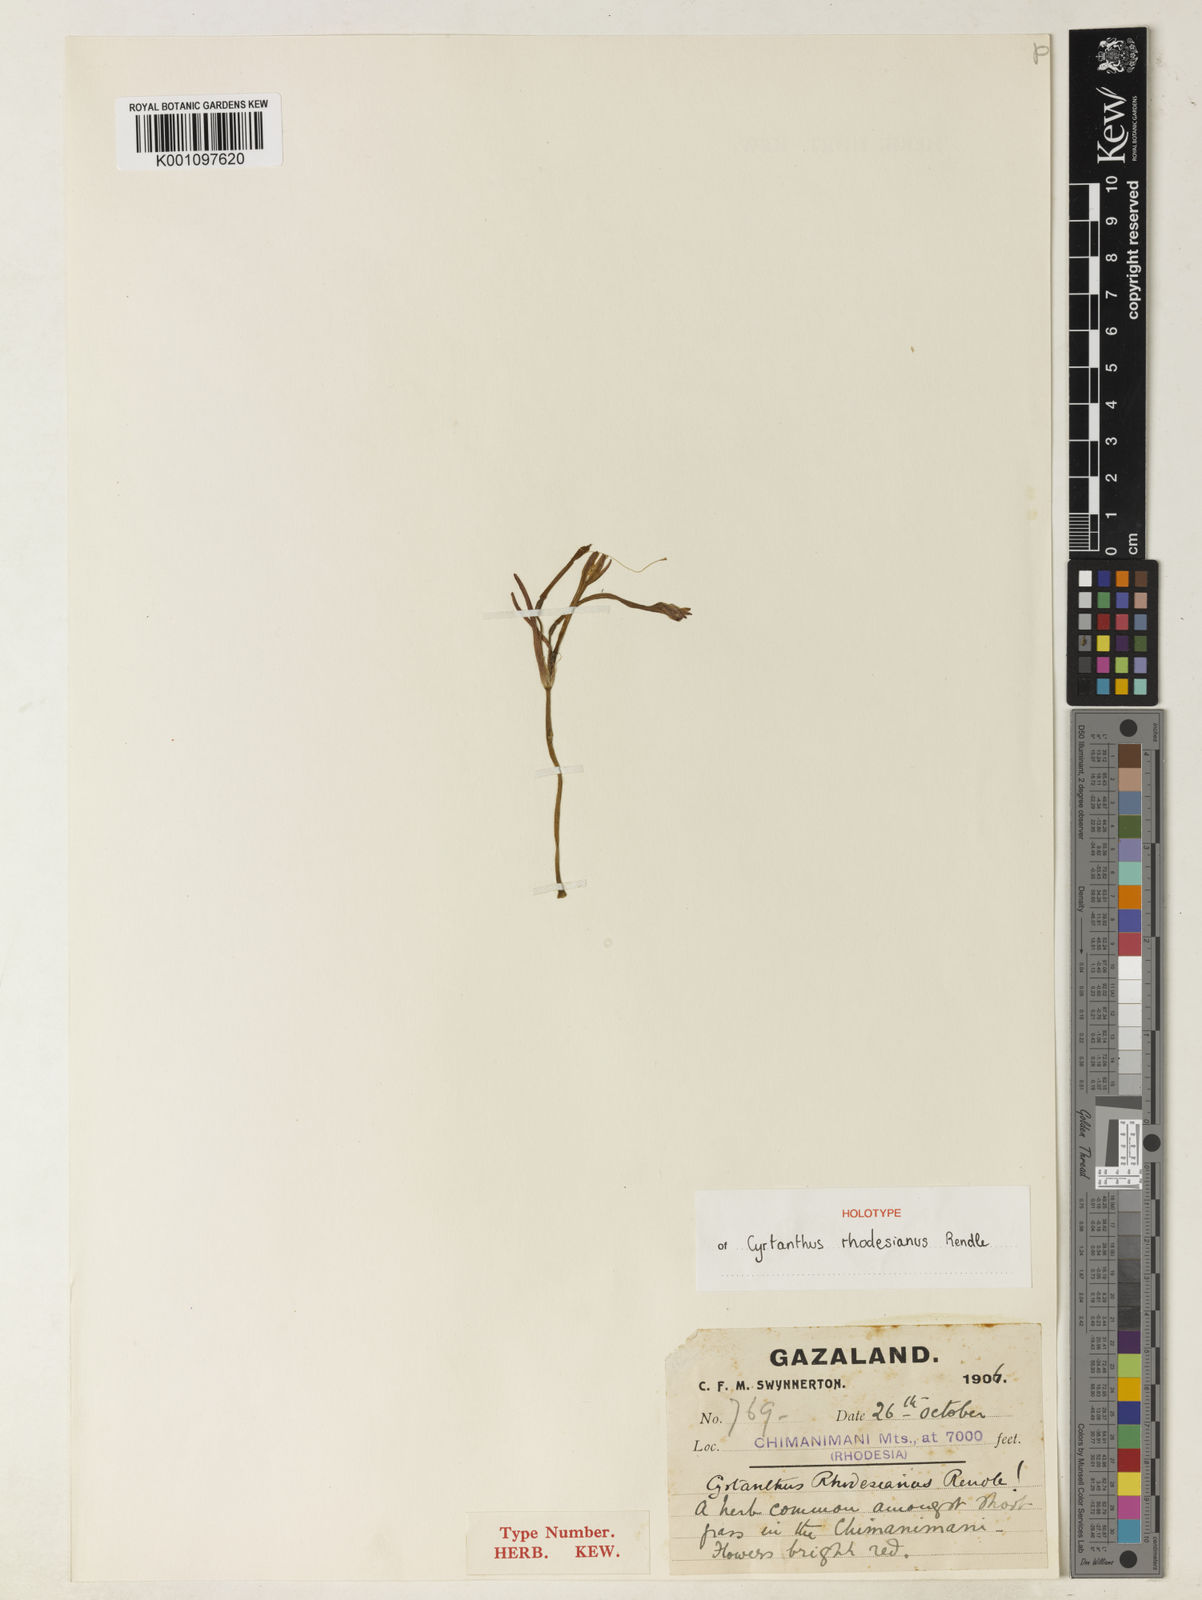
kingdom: Plantae
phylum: Tracheophyta
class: Liliopsida
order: Asparagales
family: Amaryllidaceae
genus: Cyrtanthus
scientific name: Cyrtanthus rhodesianus
